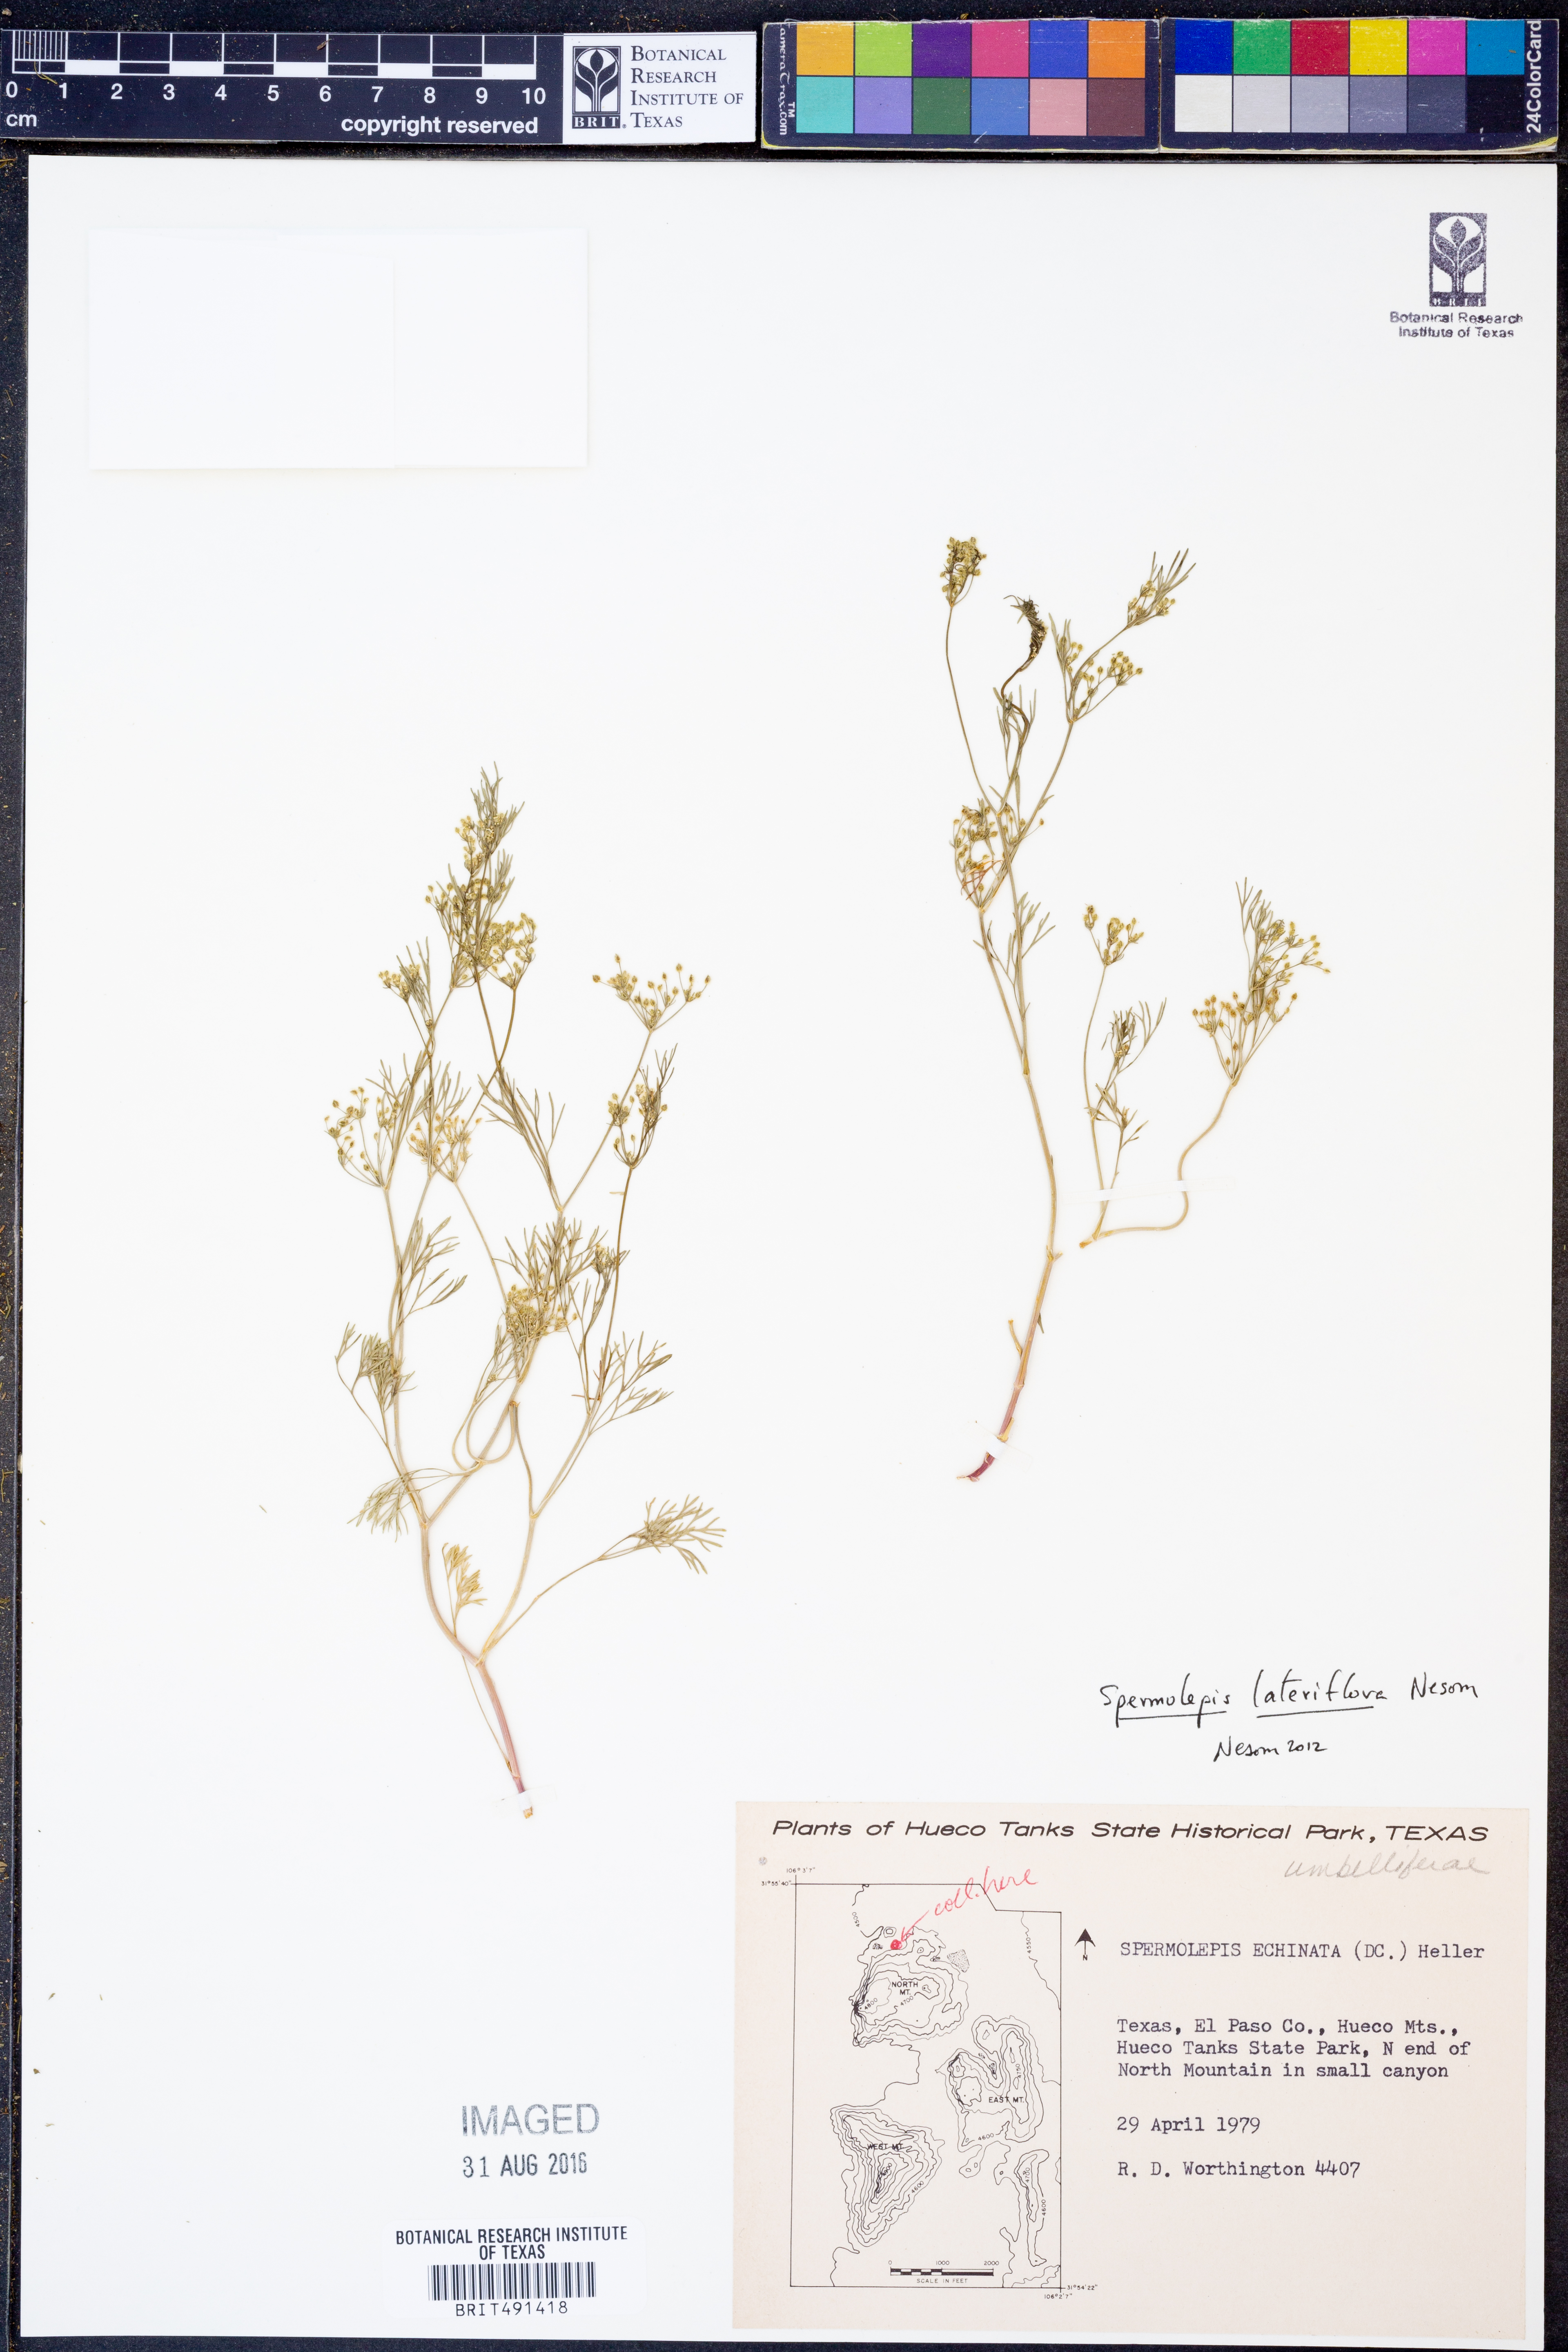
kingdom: Plantae
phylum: Tracheophyta
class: Magnoliopsida
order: Apiales
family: Apiaceae
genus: Spermolepis
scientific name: Spermolepis lateriflora
